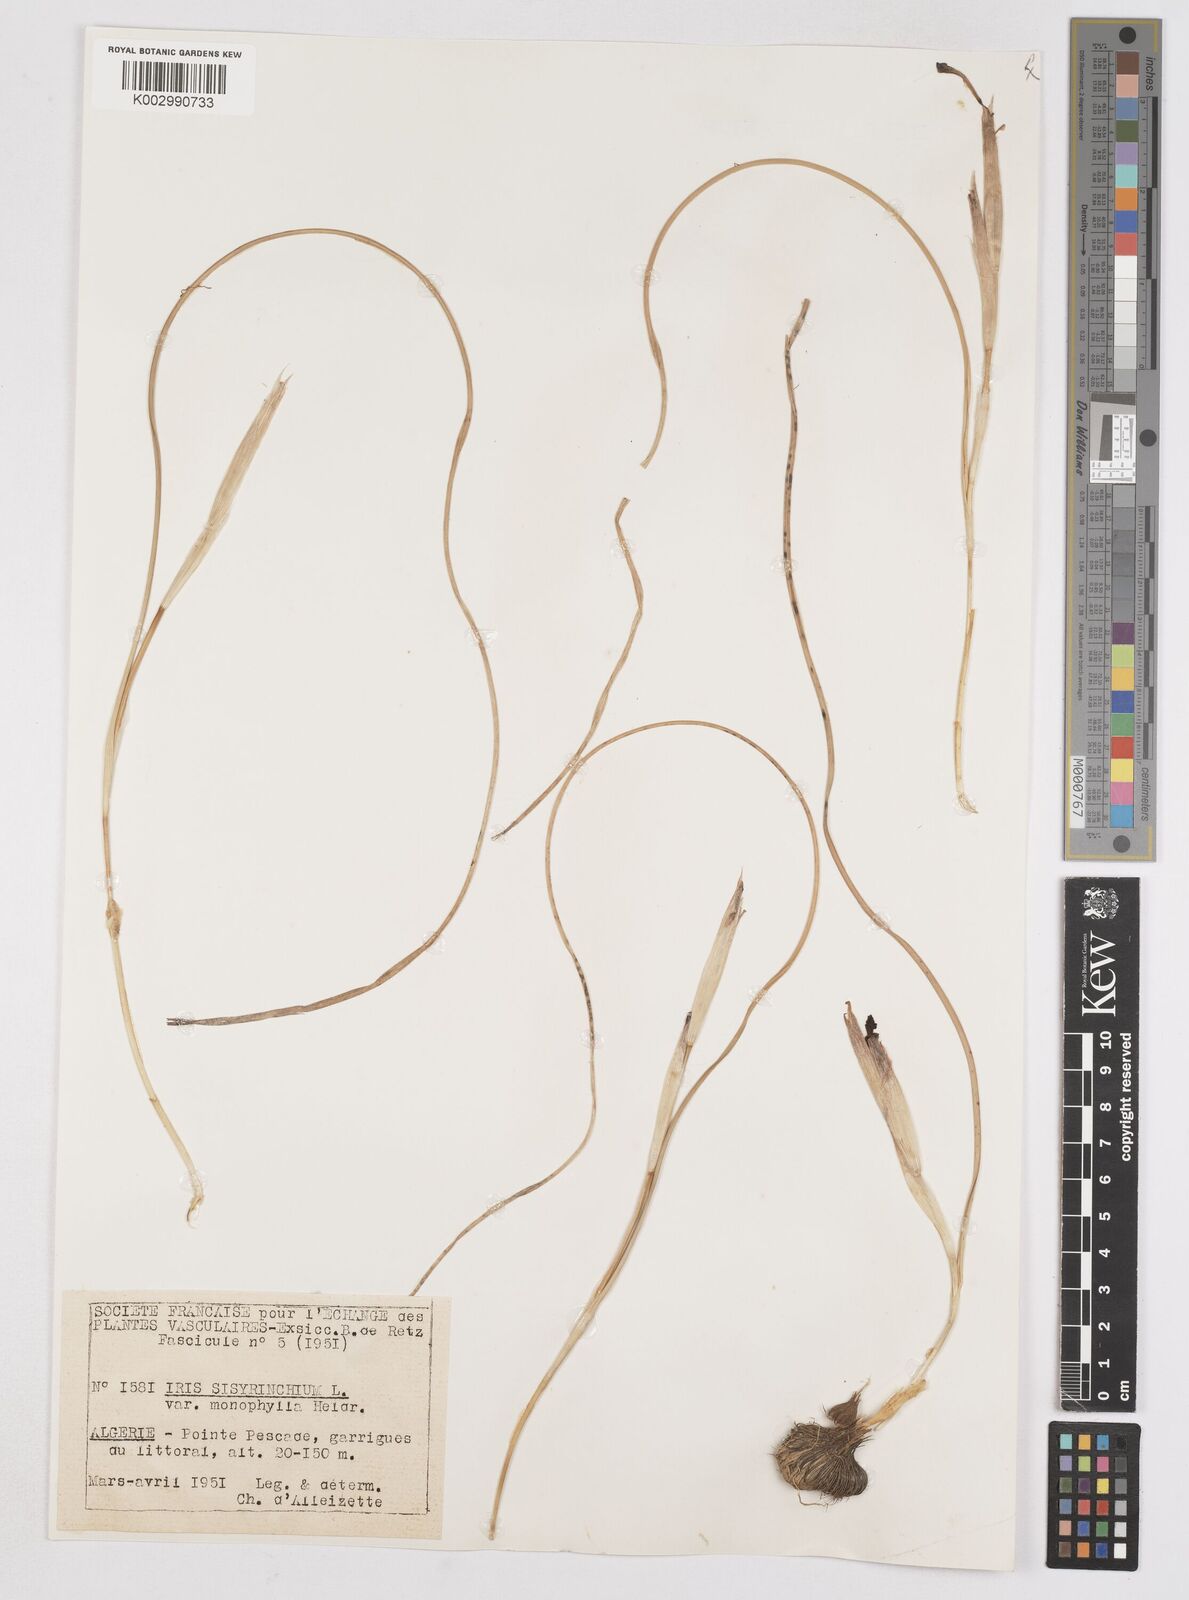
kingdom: Plantae
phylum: Tracheophyta
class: Liliopsida
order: Asparagales
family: Iridaceae
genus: Moraea
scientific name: Moraea sisyrinchium
